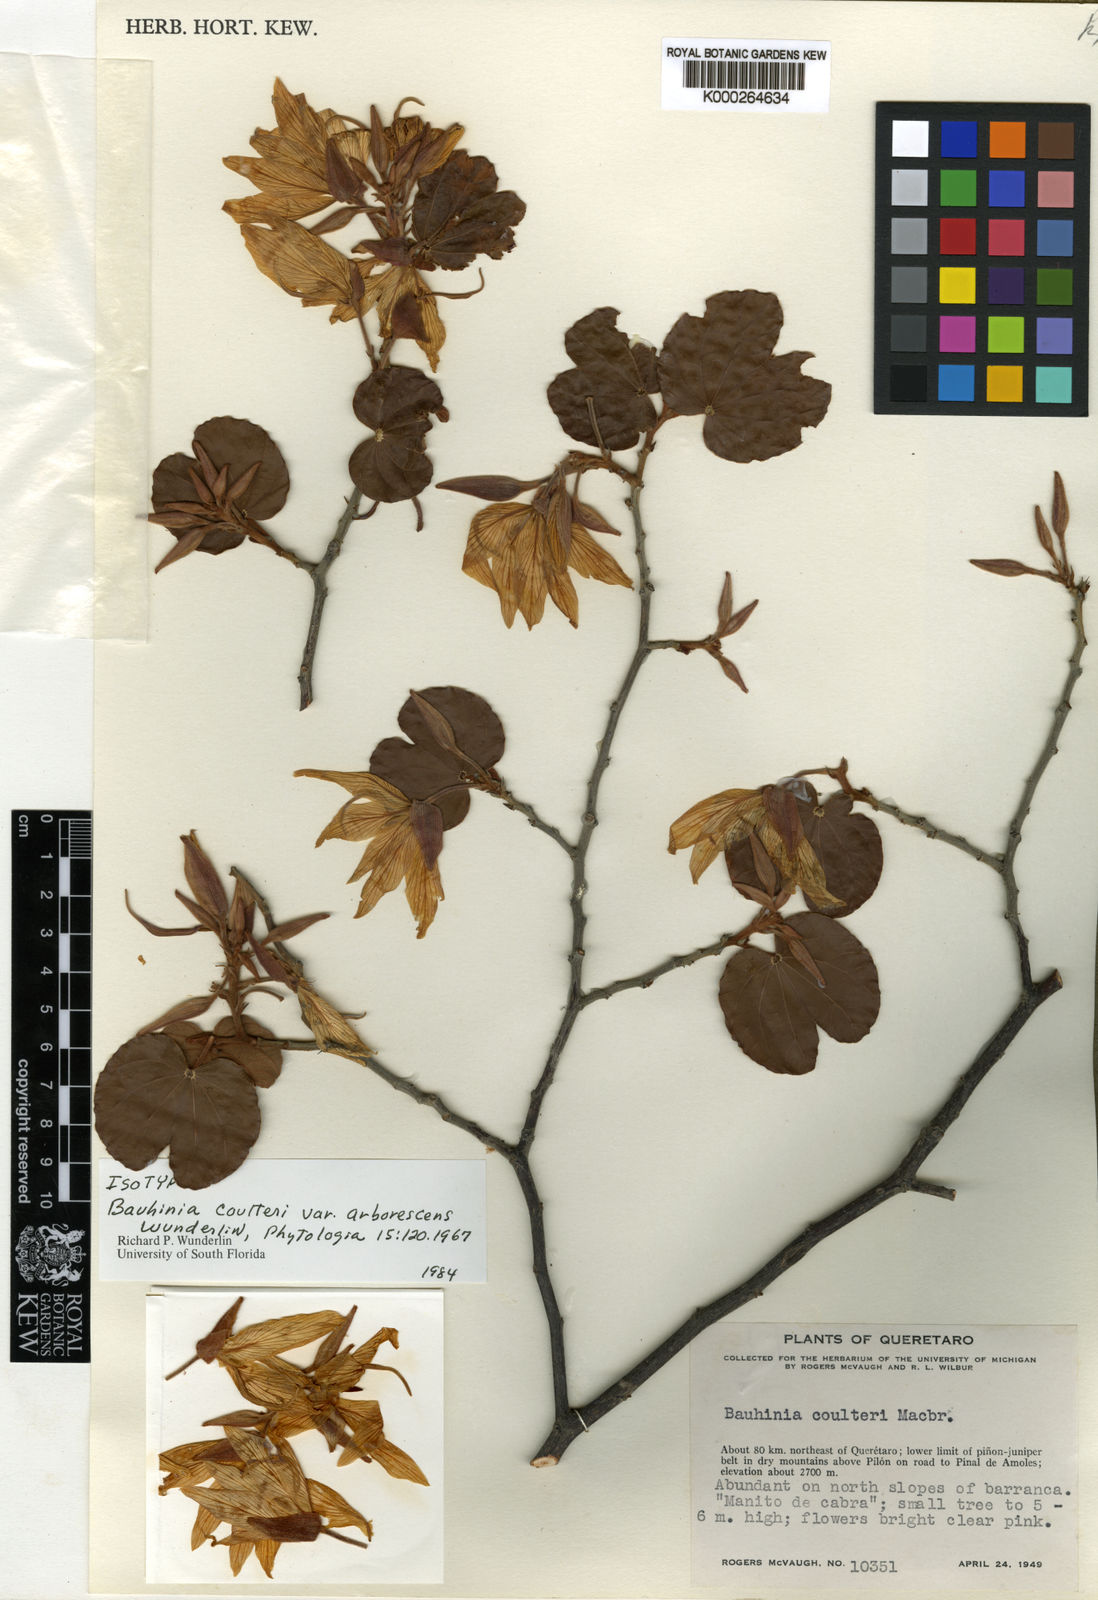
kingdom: Plantae
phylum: Tracheophyta
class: Magnoliopsida
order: Fabales
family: Fabaceae
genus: Bauhinia
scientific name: Bauhinia coulteri
